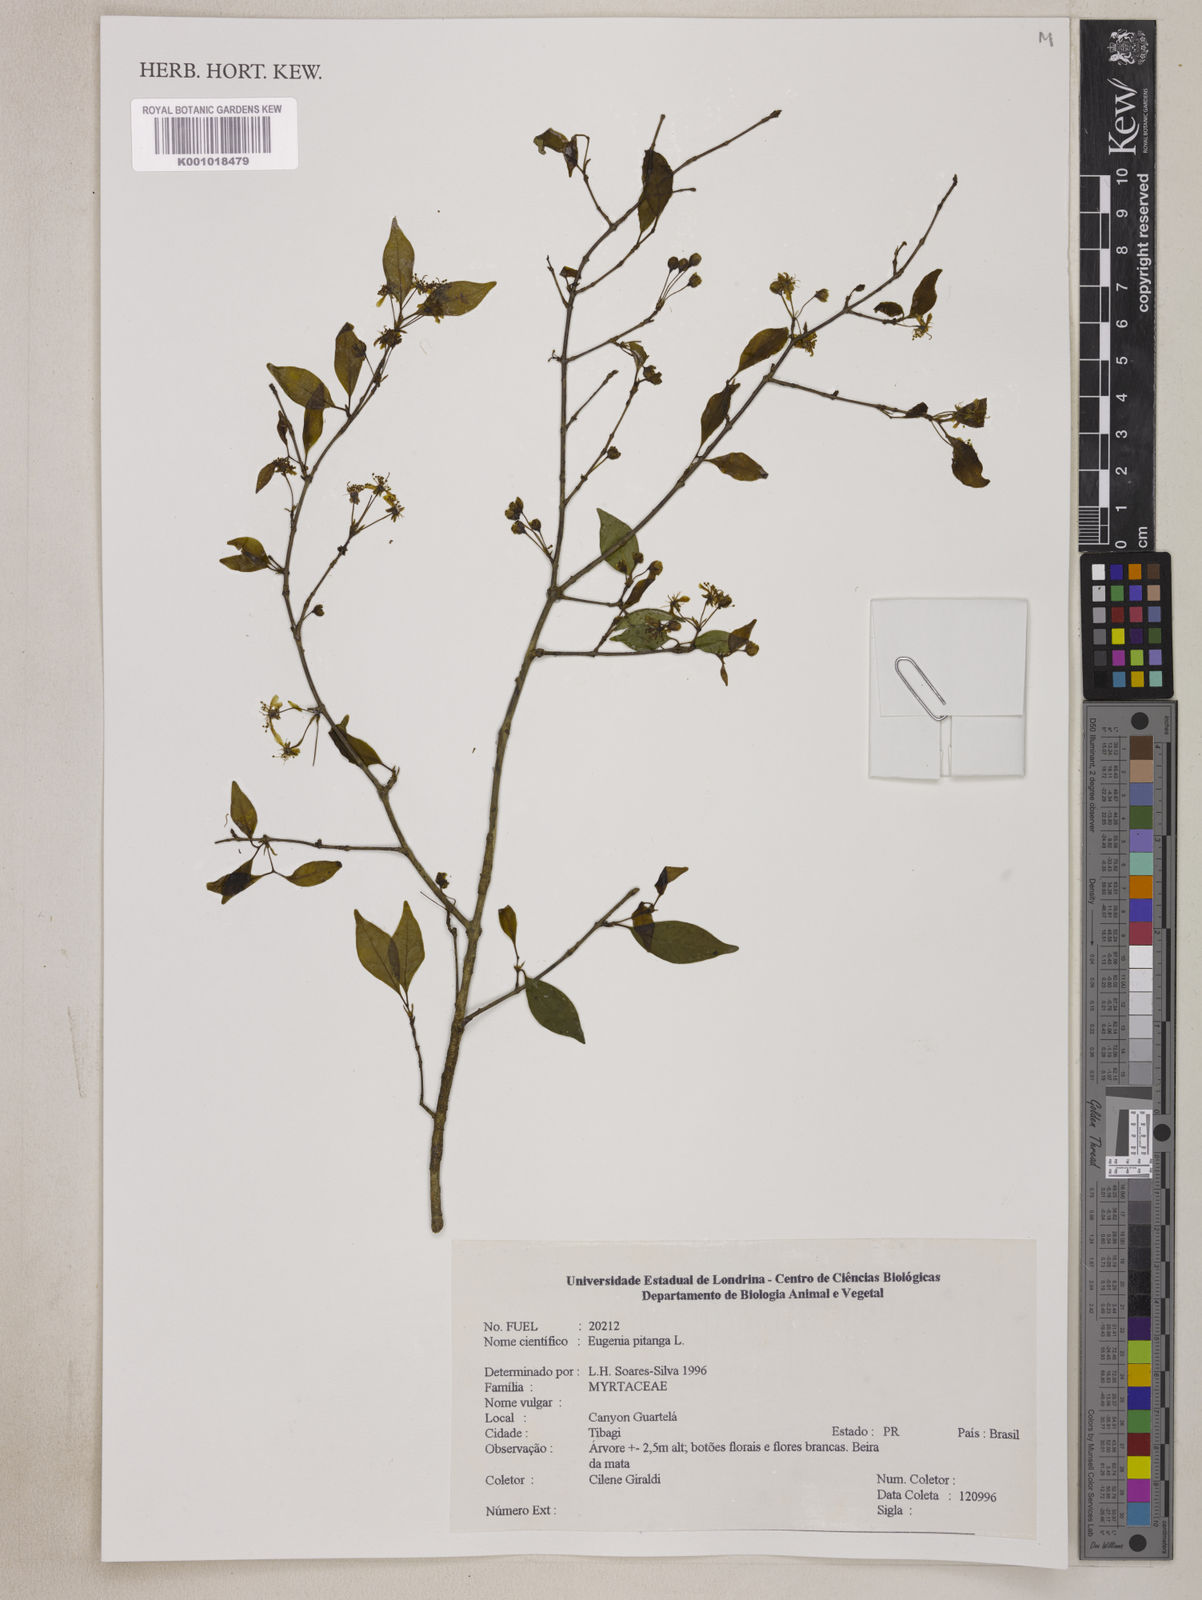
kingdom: Plantae
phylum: Tracheophyta
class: Magnoliopsida
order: Myrtales
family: Myrtaceae
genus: Eugenia
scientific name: Eugenia
